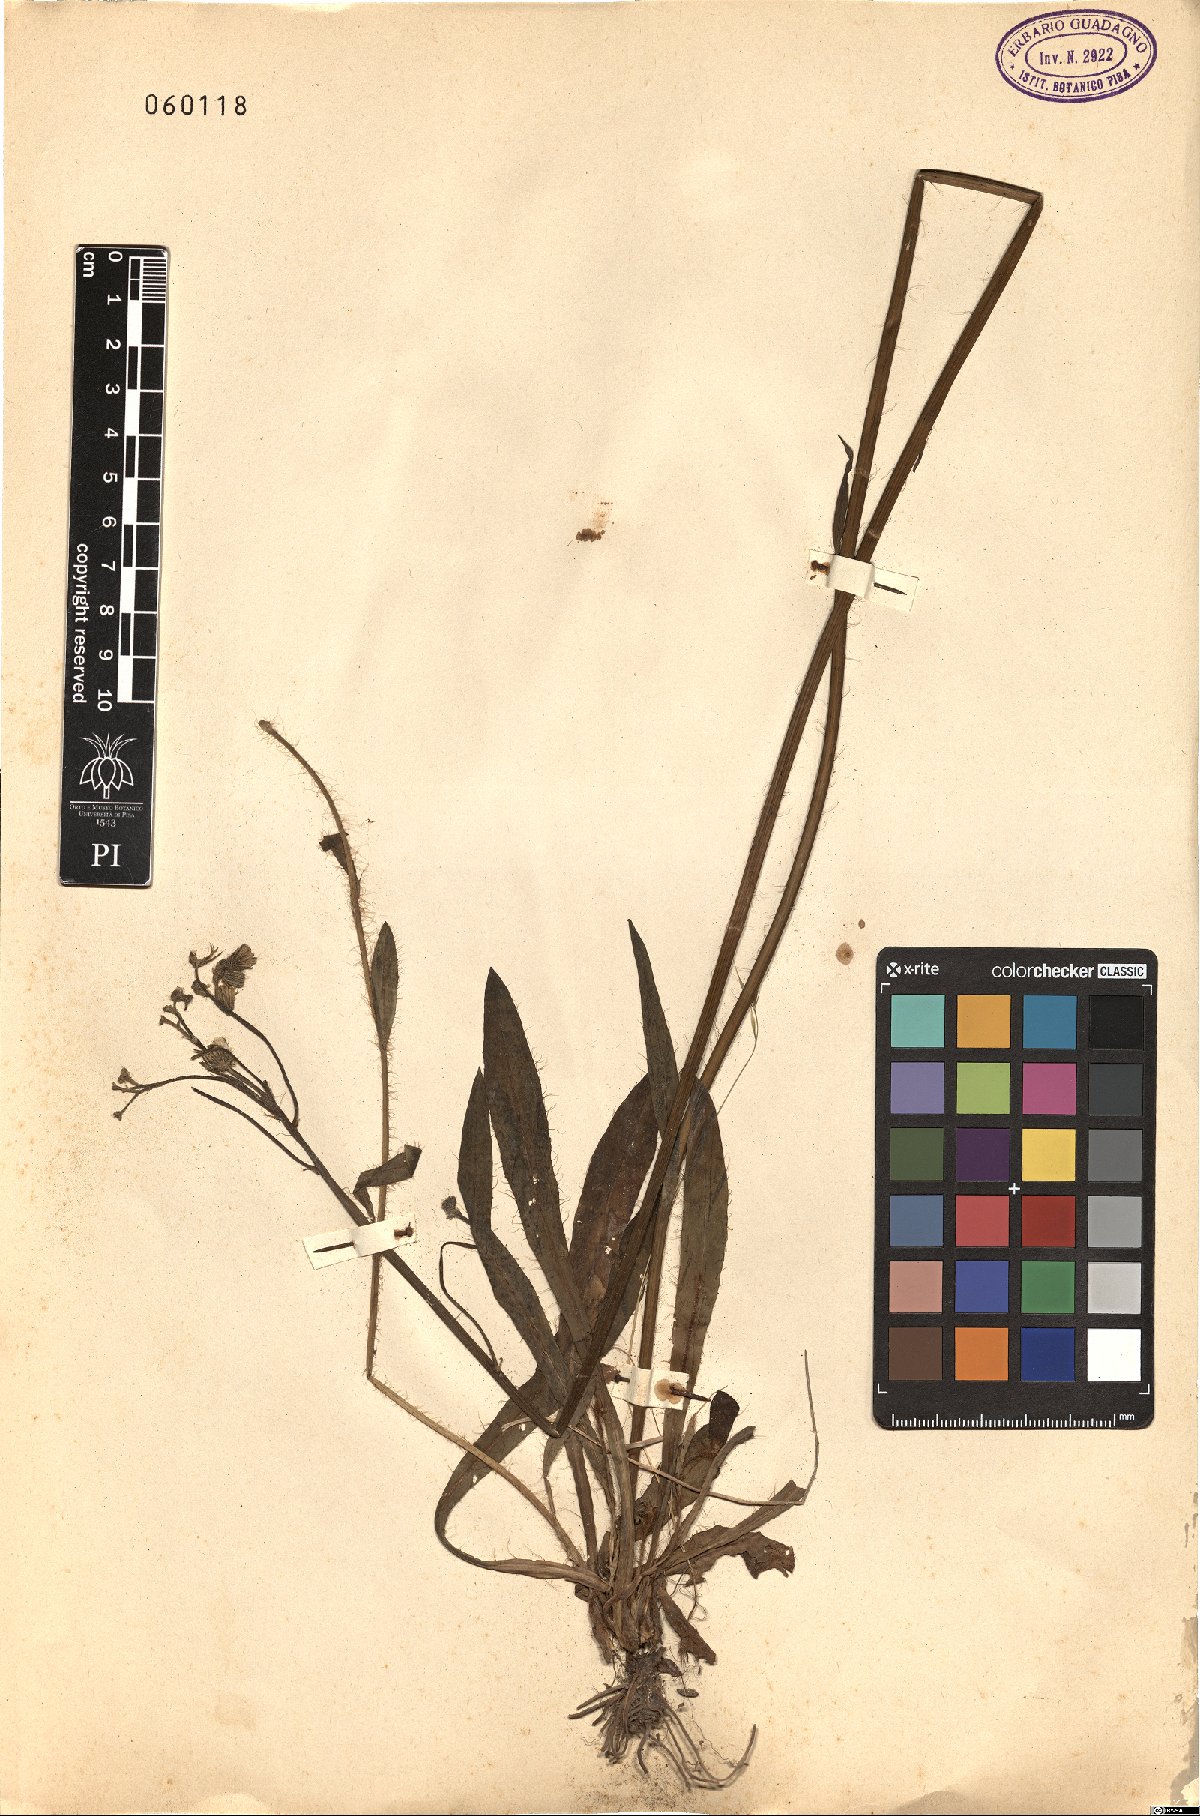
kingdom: Plantae
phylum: Tracheophyta
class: Magnoliopsida
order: Asterales
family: Asteraceae
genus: Pilosella
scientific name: Pilosella
